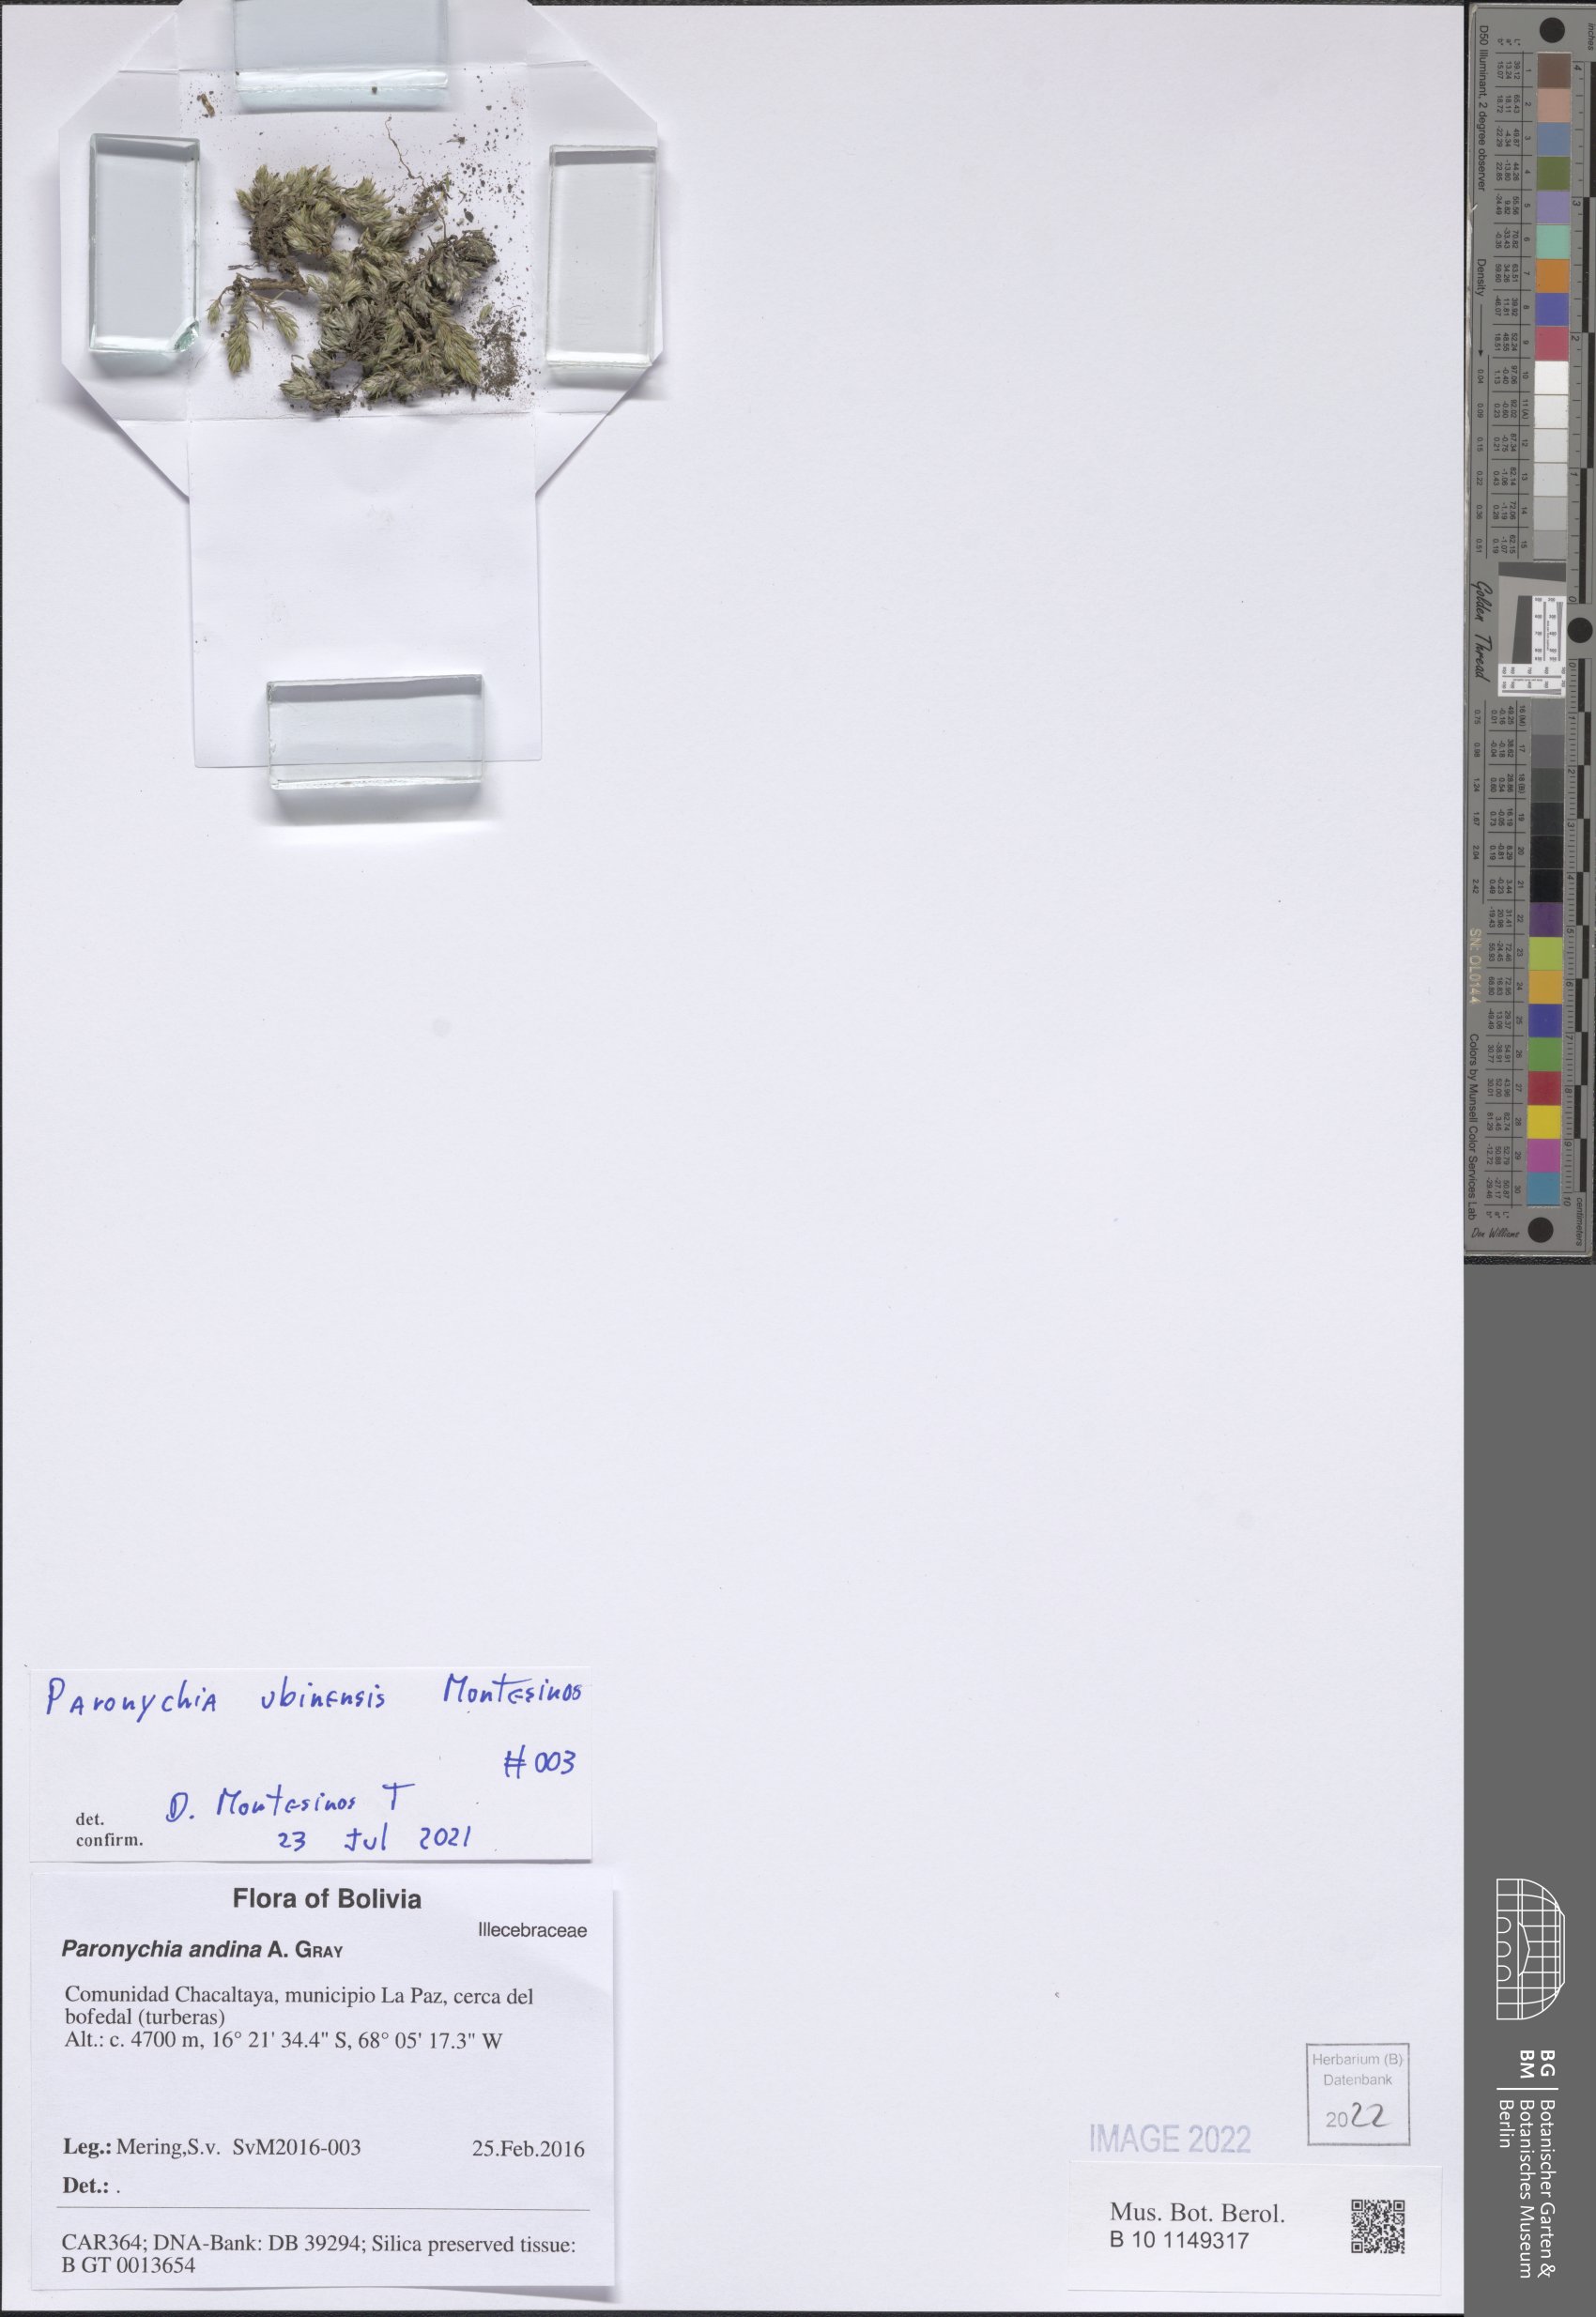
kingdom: Plantae
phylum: Tracheophyta
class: Magnoliopsida
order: Caryophyllales
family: Caryophyllaceae
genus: Paronychia
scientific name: Paronychia peruviana
